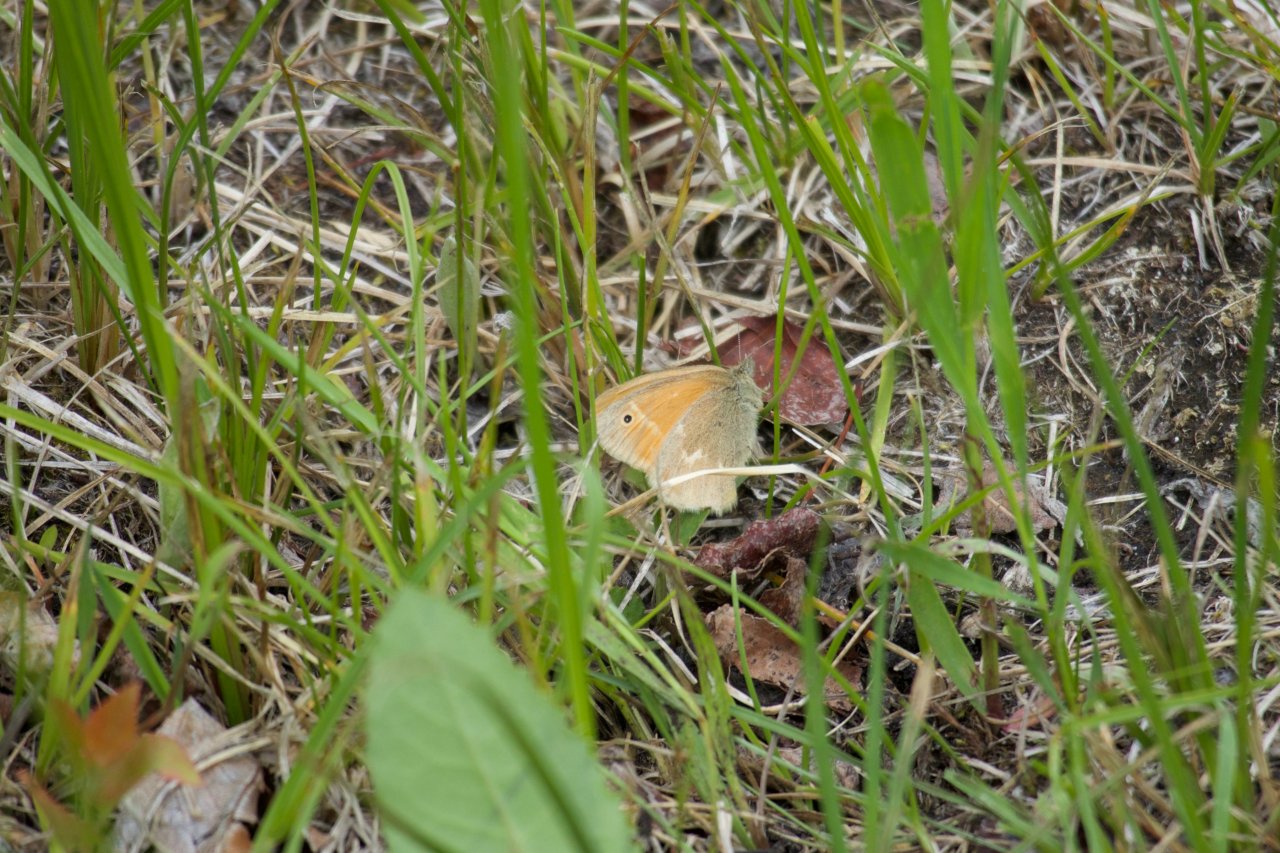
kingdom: Animalia
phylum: Arthropoda
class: Insecta
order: Lepidoptera
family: Nymphalidae
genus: Coenonympha
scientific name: Coenonympha tullia
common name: Large Heath
